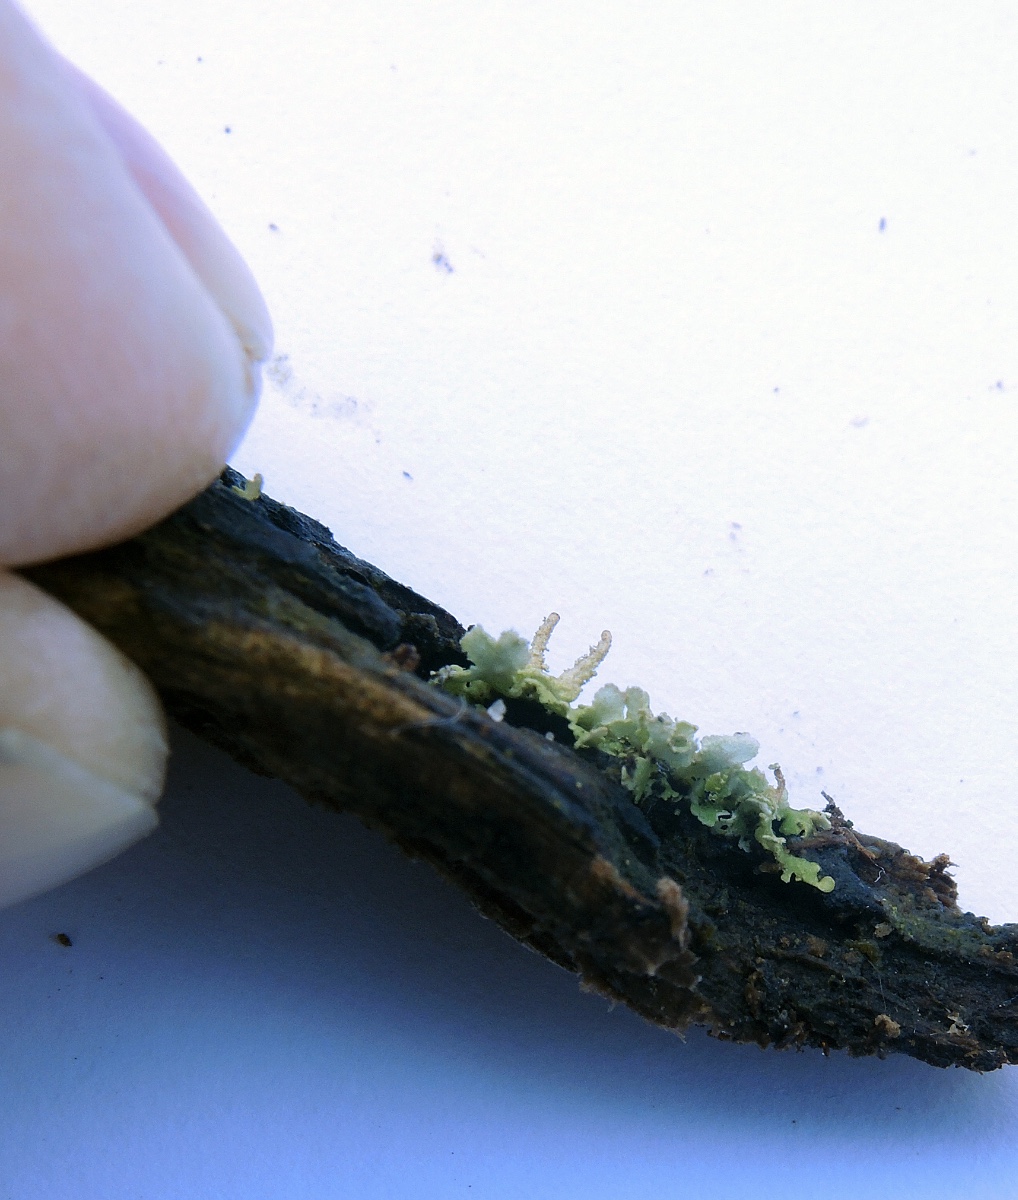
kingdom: Fungi
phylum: Ascomycota
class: Lecanoromycetes
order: Lecanorales
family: Cladoniaceae
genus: Cladonia
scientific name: Cladonia coniocraea
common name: træfods-bægerlav
